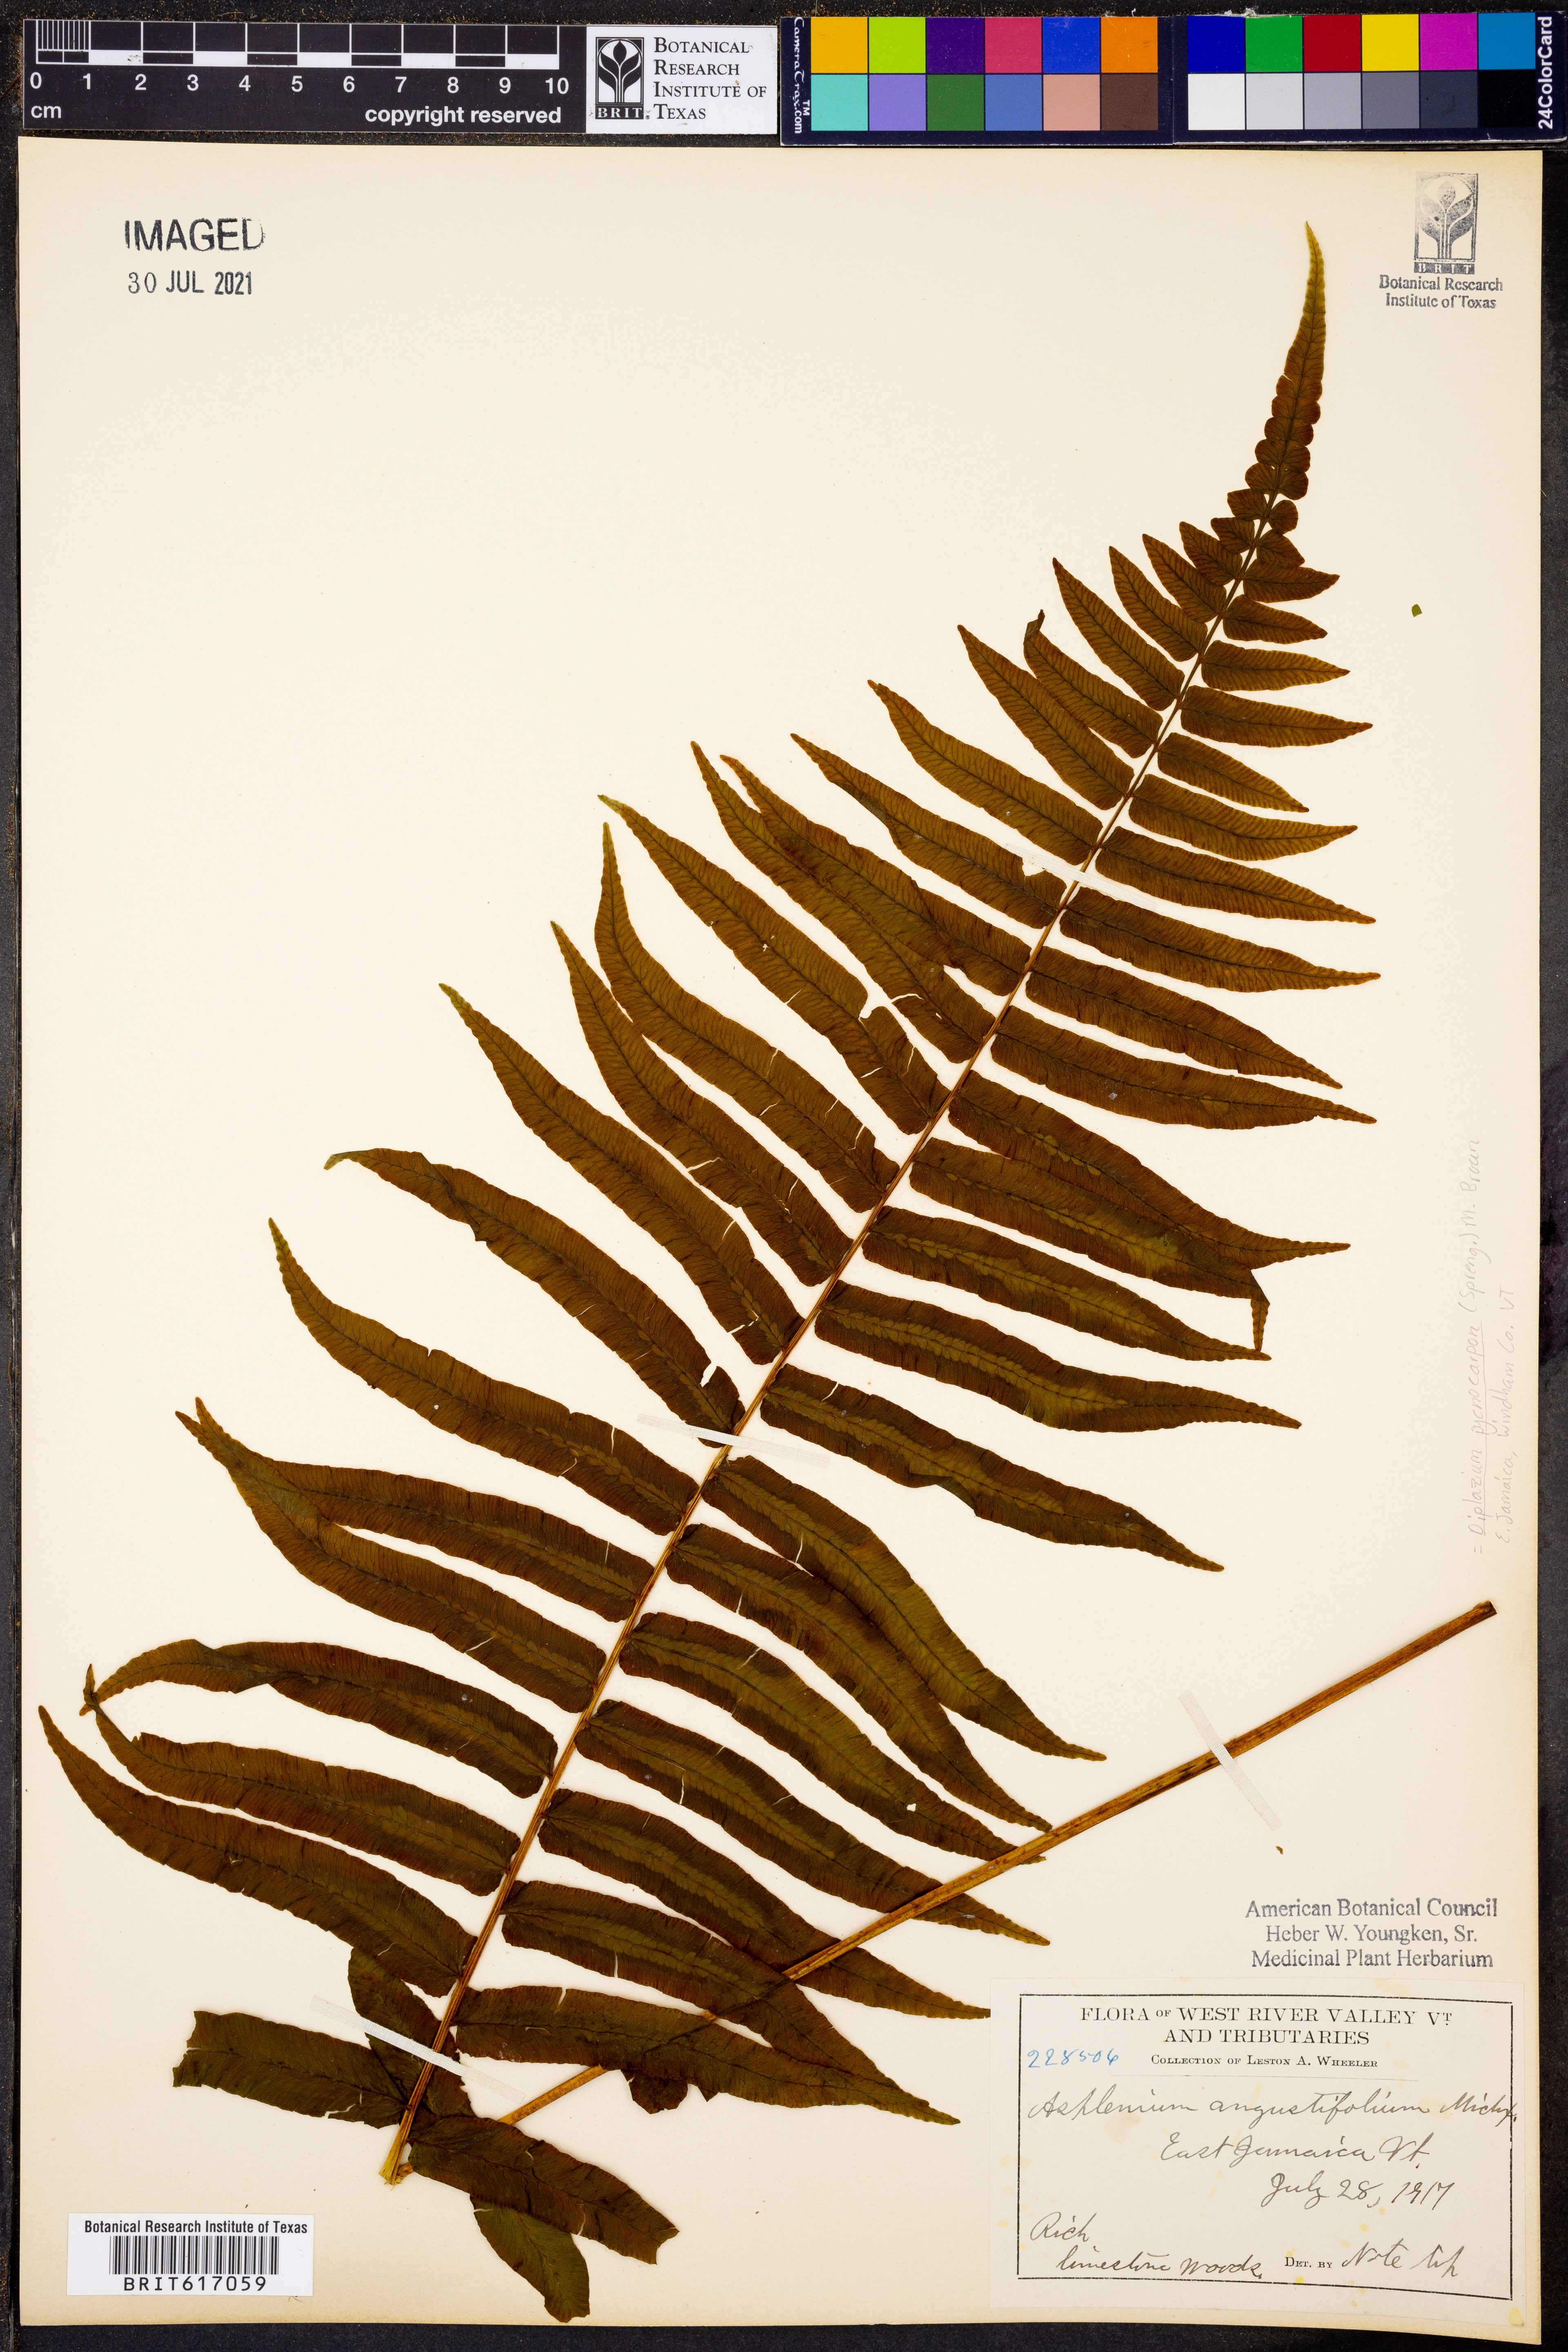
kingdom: Plantae
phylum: Tracheophyta
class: Polypodiopsida
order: Polypodiales
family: Diplaziopsidaceae
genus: Homalosorus
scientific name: Homalosorus pycnocarpos
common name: Glade fern
